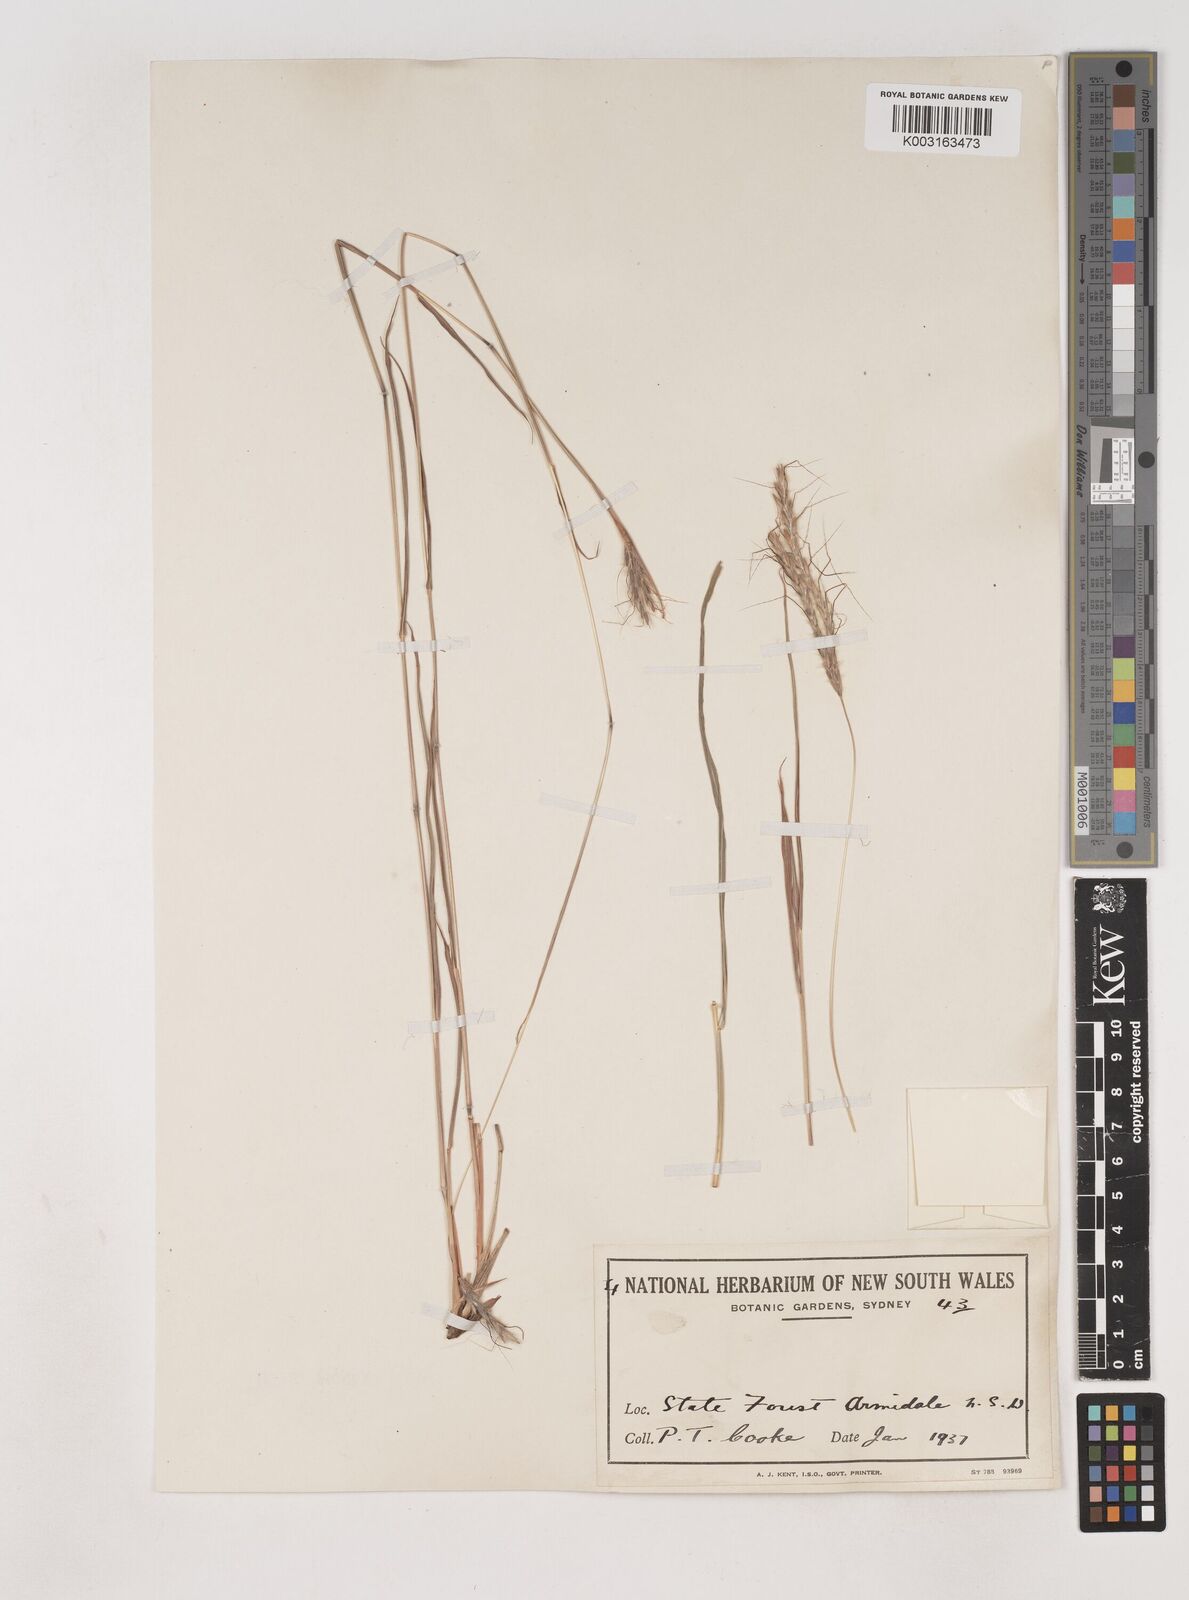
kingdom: Plantae
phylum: Tracheophyta
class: Liliopsida
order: Poales
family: Poaceae
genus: Dichanthium
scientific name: Dichanthium setosum
